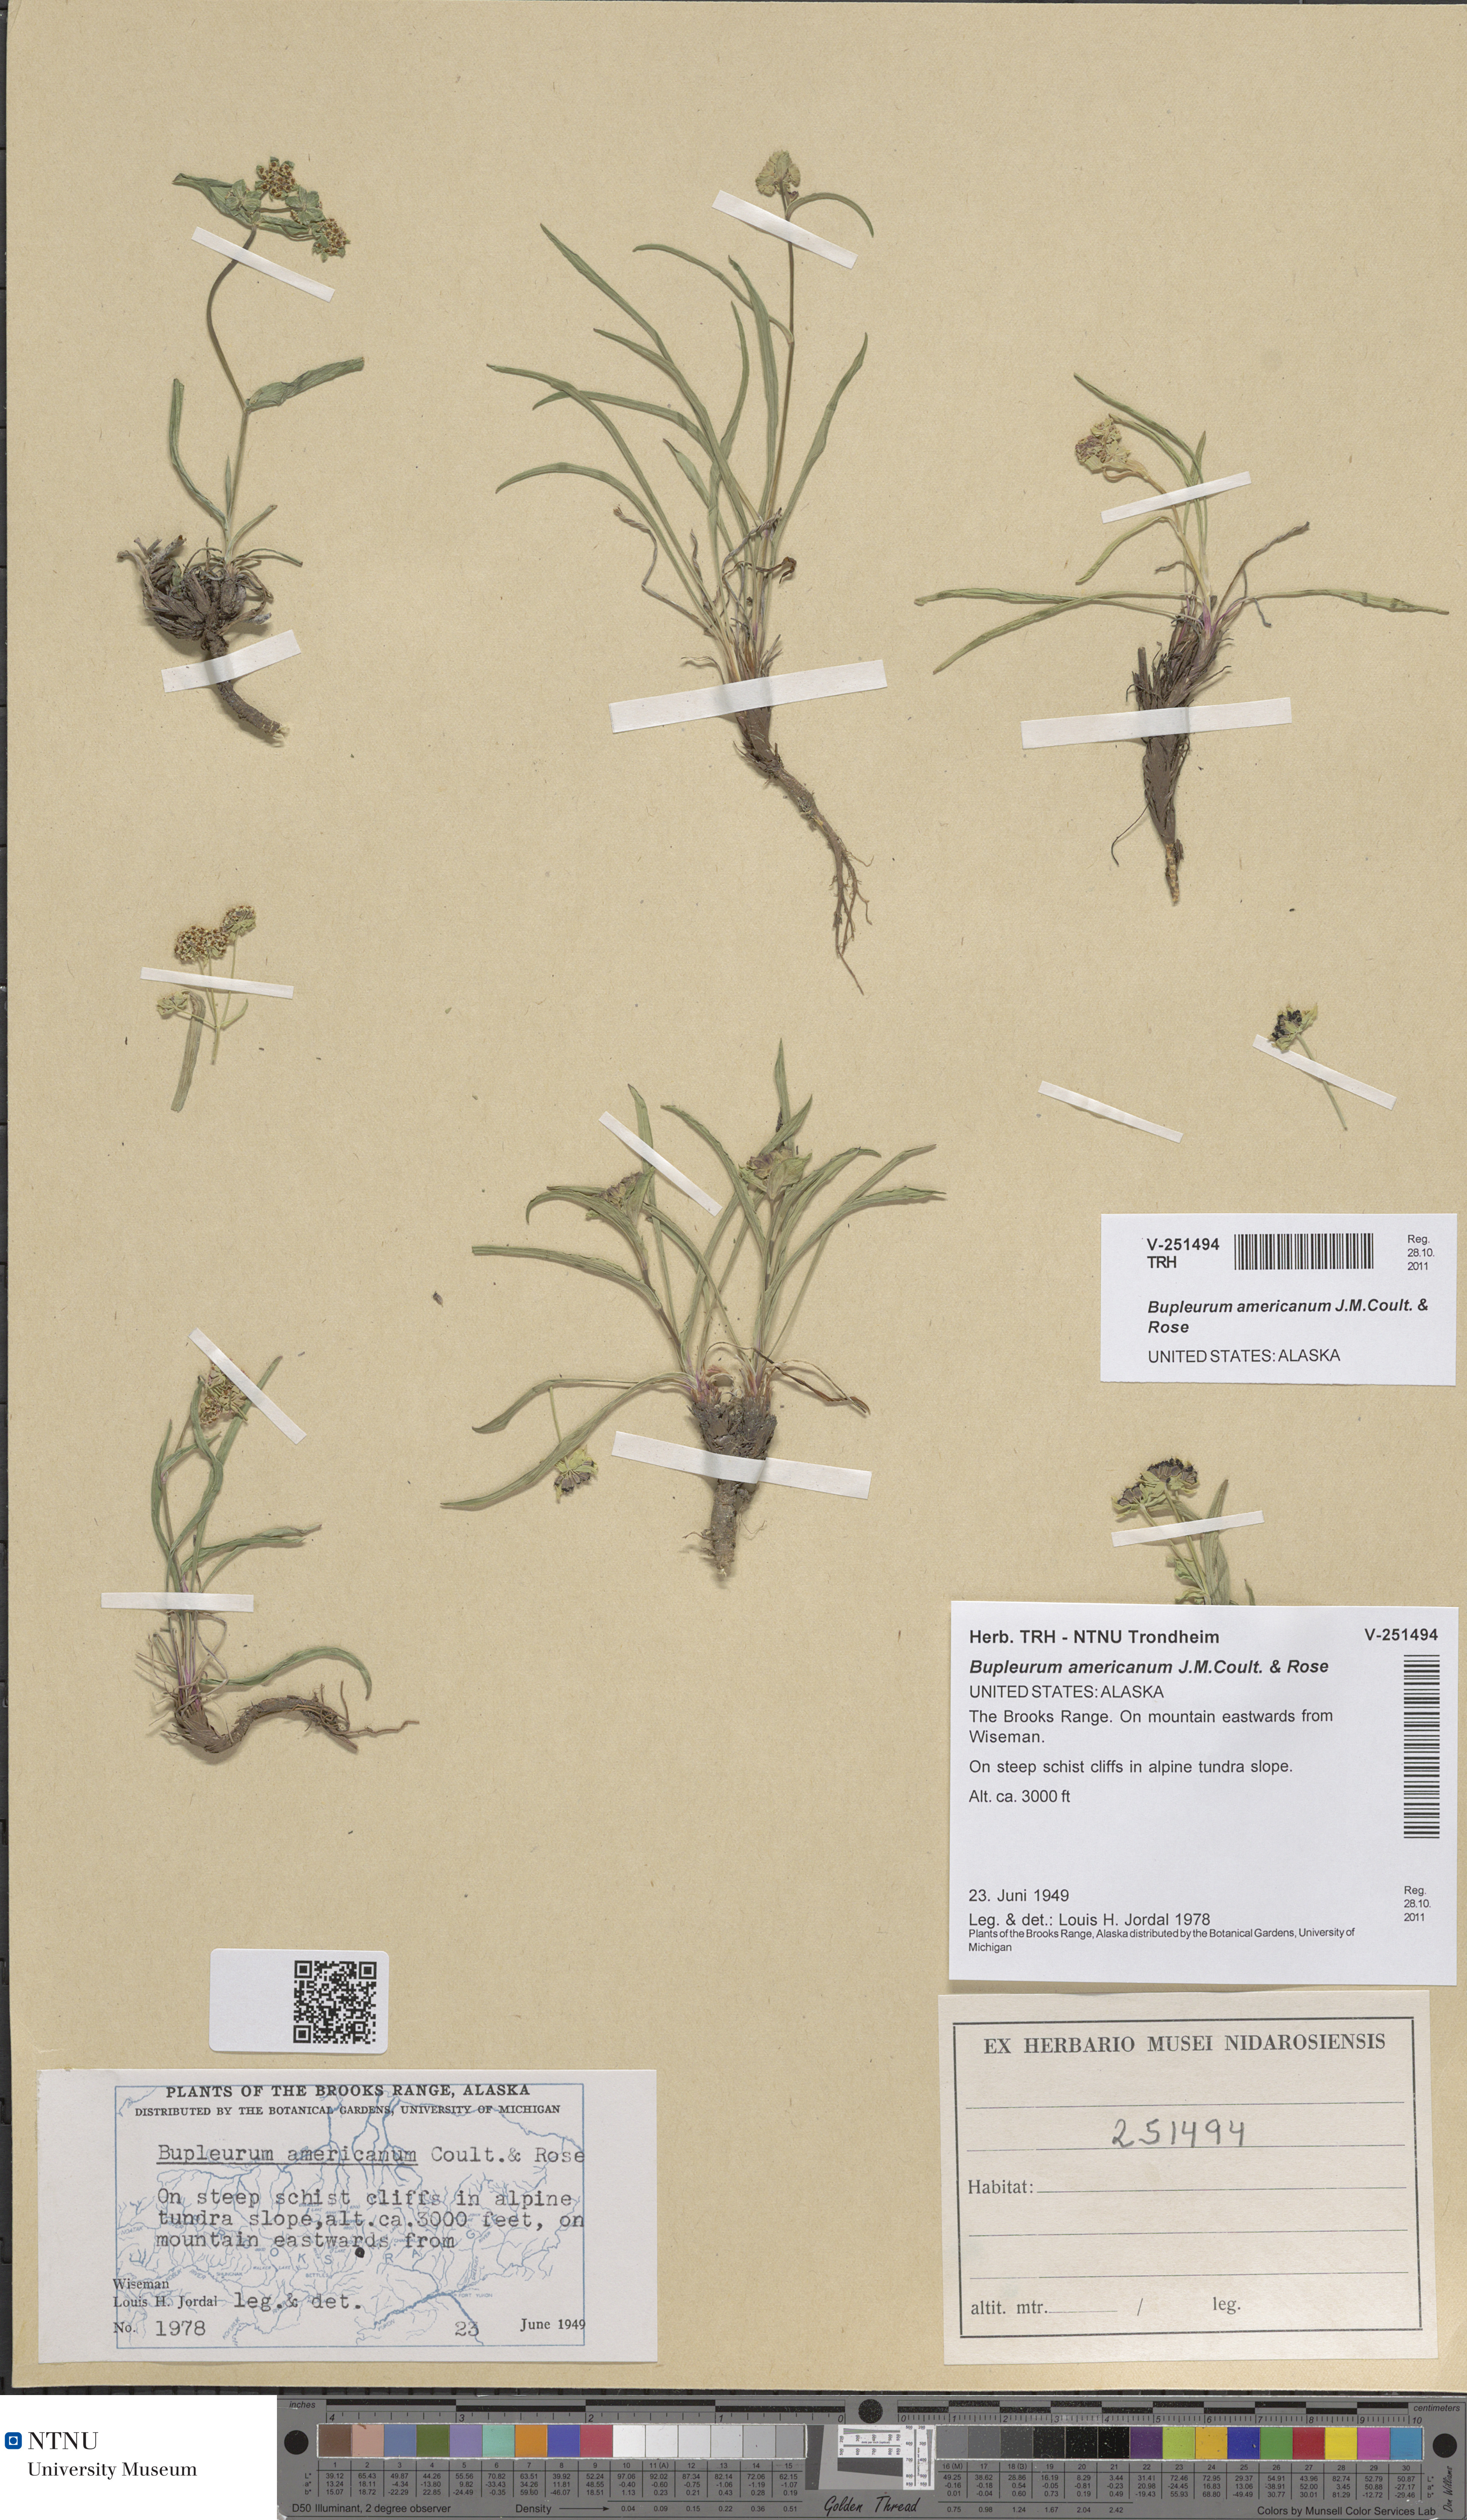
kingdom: Plantae
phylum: Tracheophyta
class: Magnoliopsida
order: Apiales
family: Apiaceae
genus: Bupleurum
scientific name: Bupleurum americanum
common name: American thoroughwax
